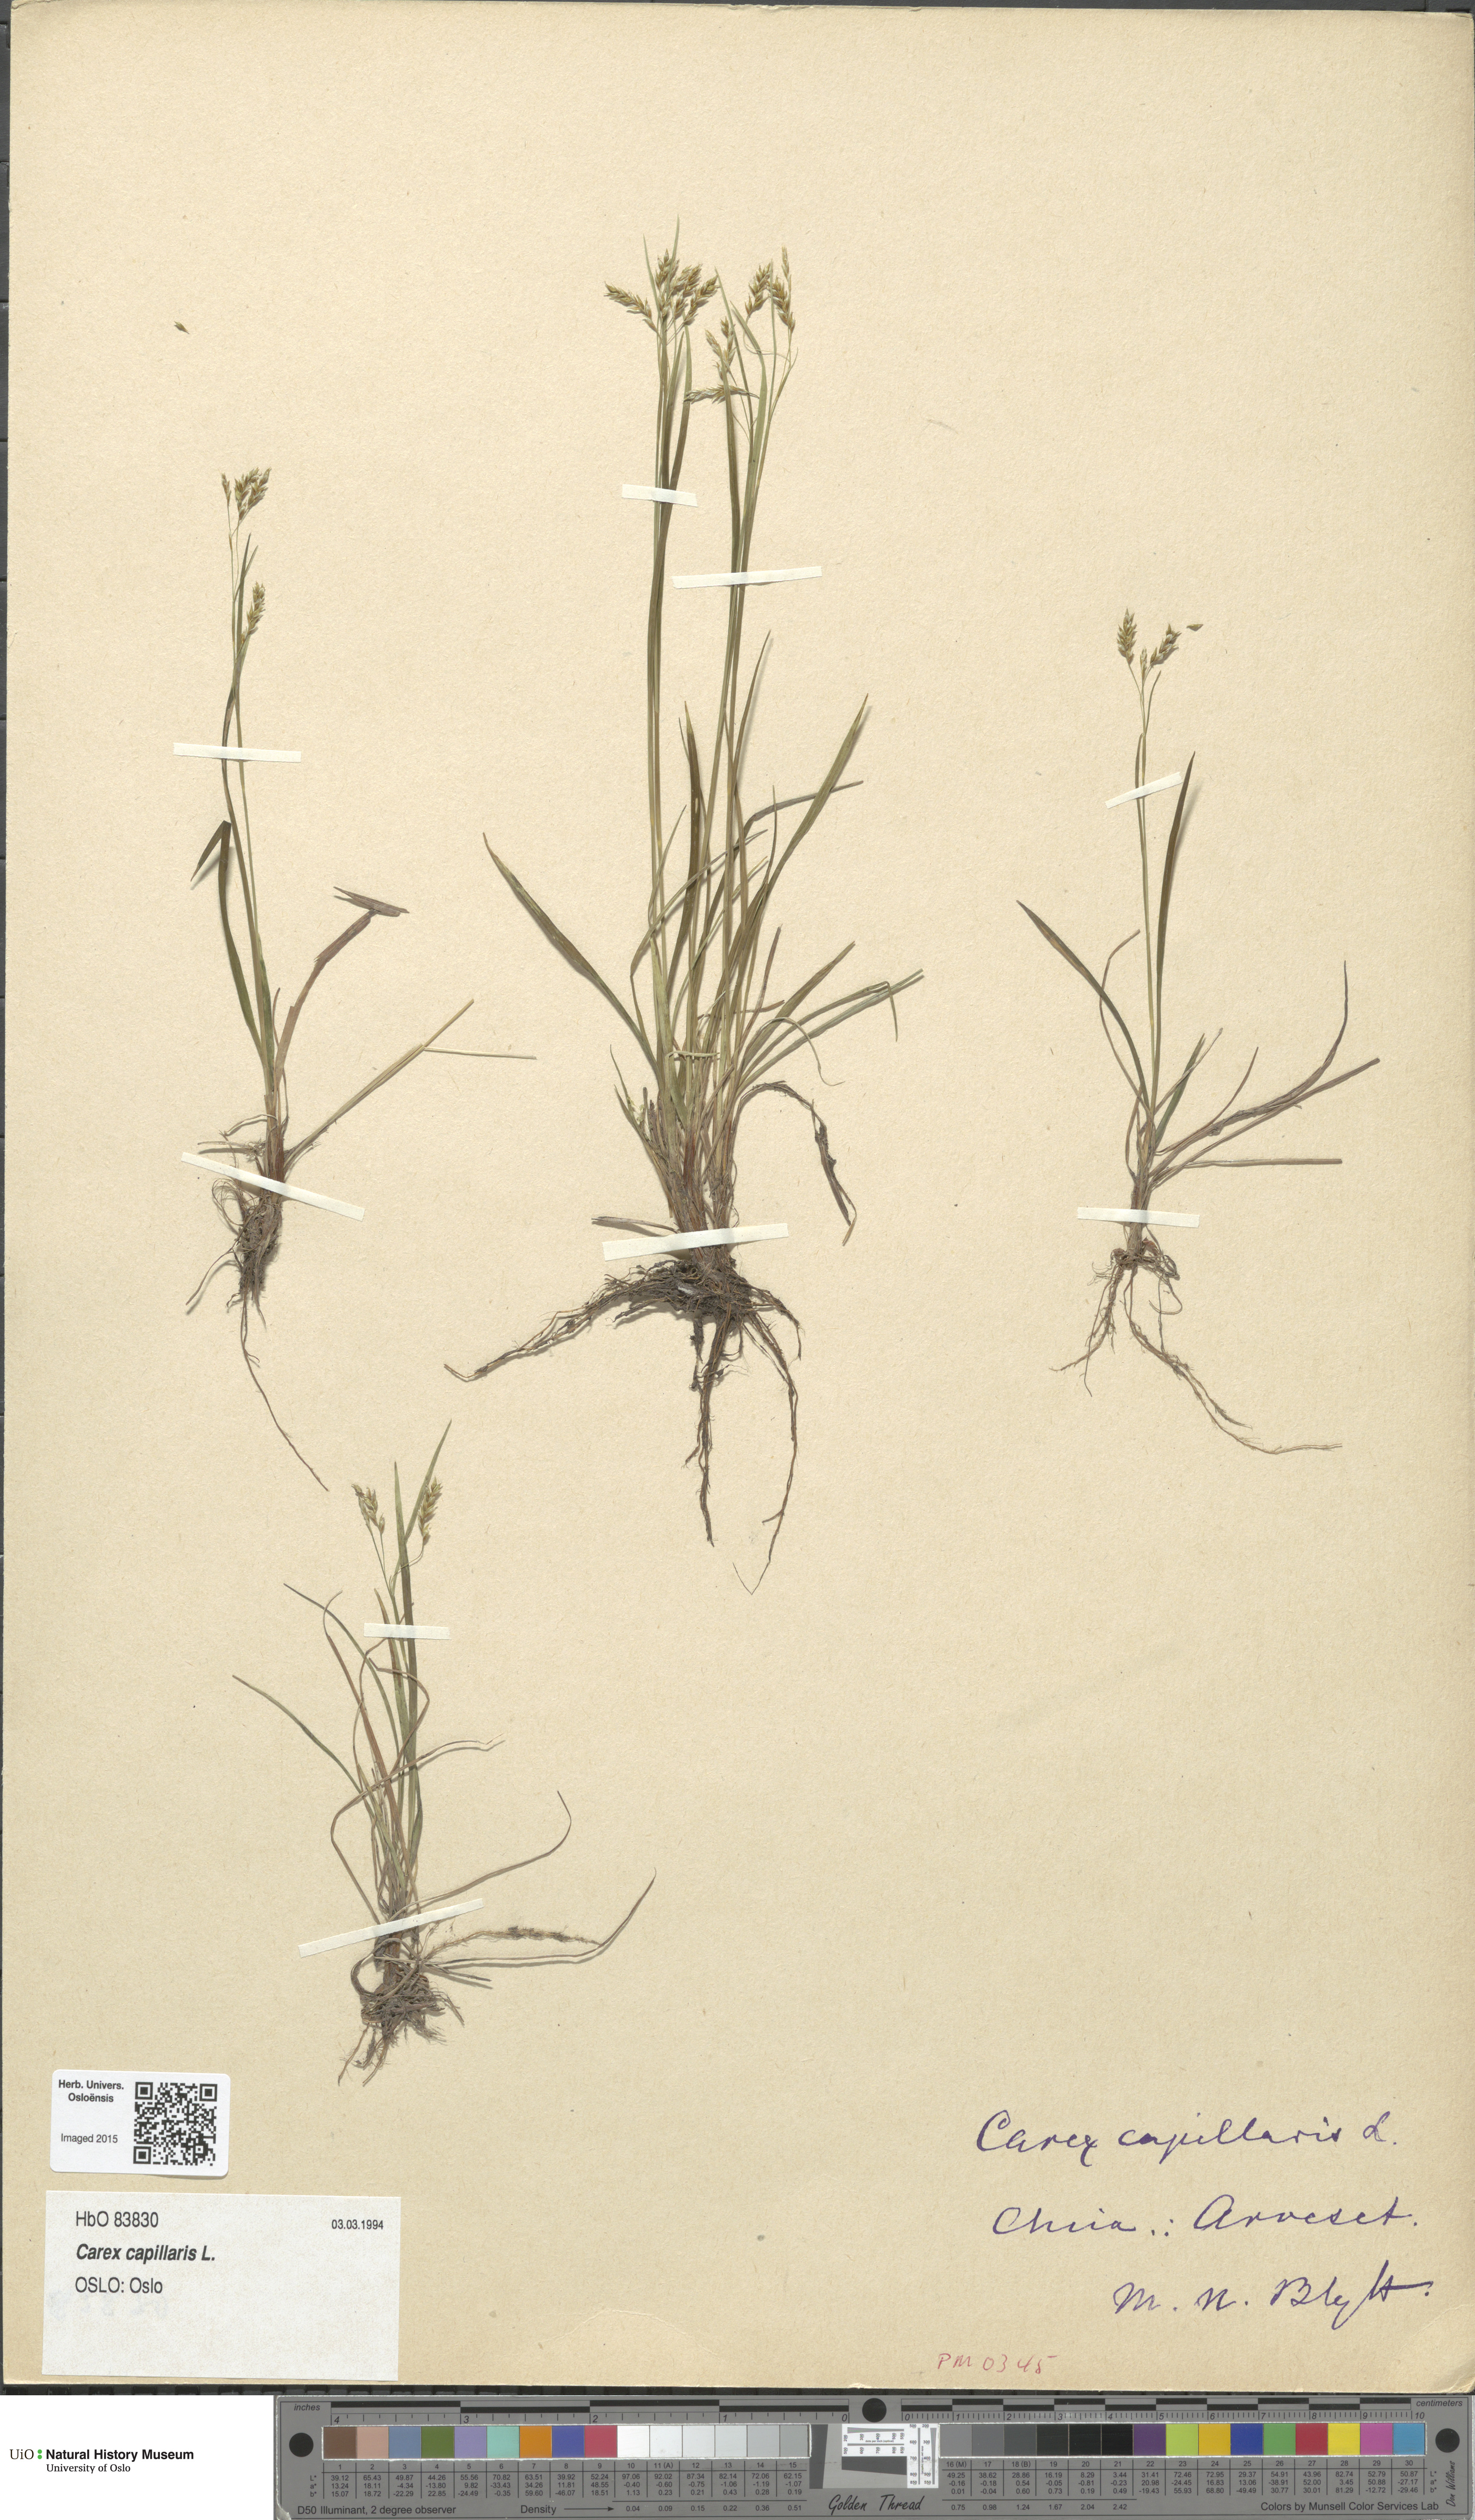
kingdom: Plantae
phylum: Tracheophyta
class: Liliopsida
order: Poales
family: Cyperaceae
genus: Carex
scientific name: Carex capillaris
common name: Hair sedge
